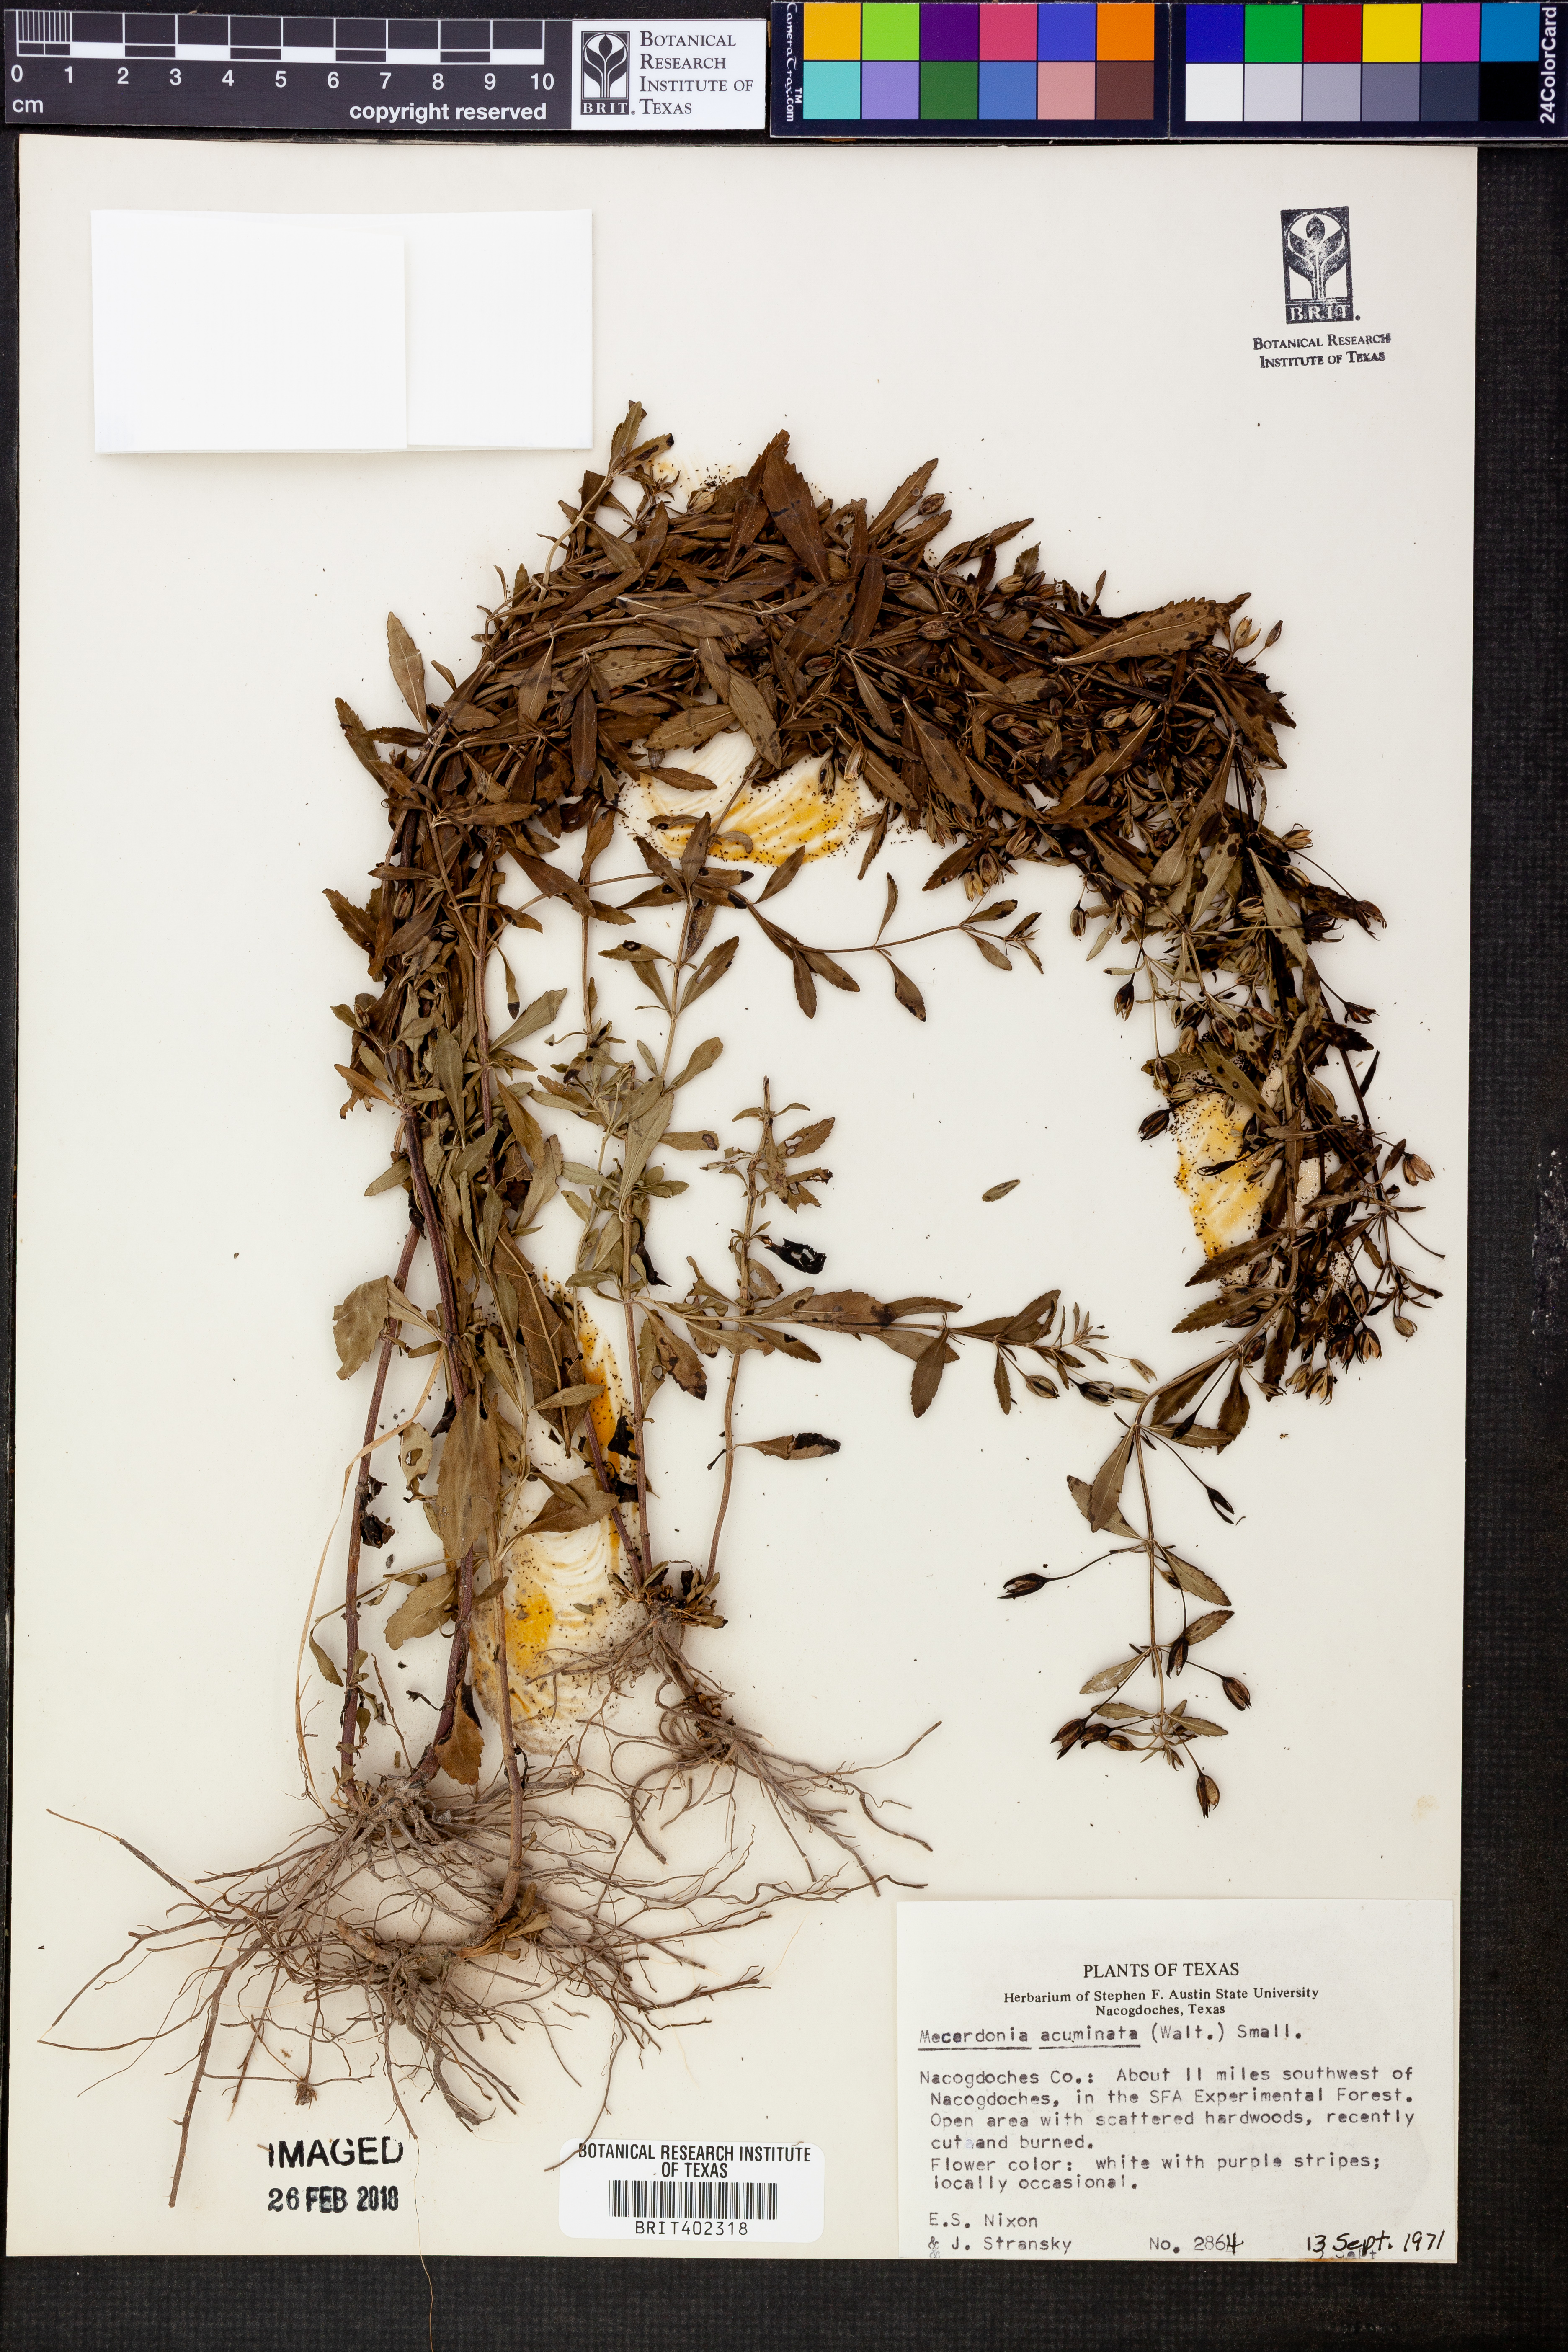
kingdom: Plantae
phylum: Tracheophyta
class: Magnoliopsida
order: Lamiales
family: Plantaginaceae
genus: Mecardonia
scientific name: Mecardonia acuminata
